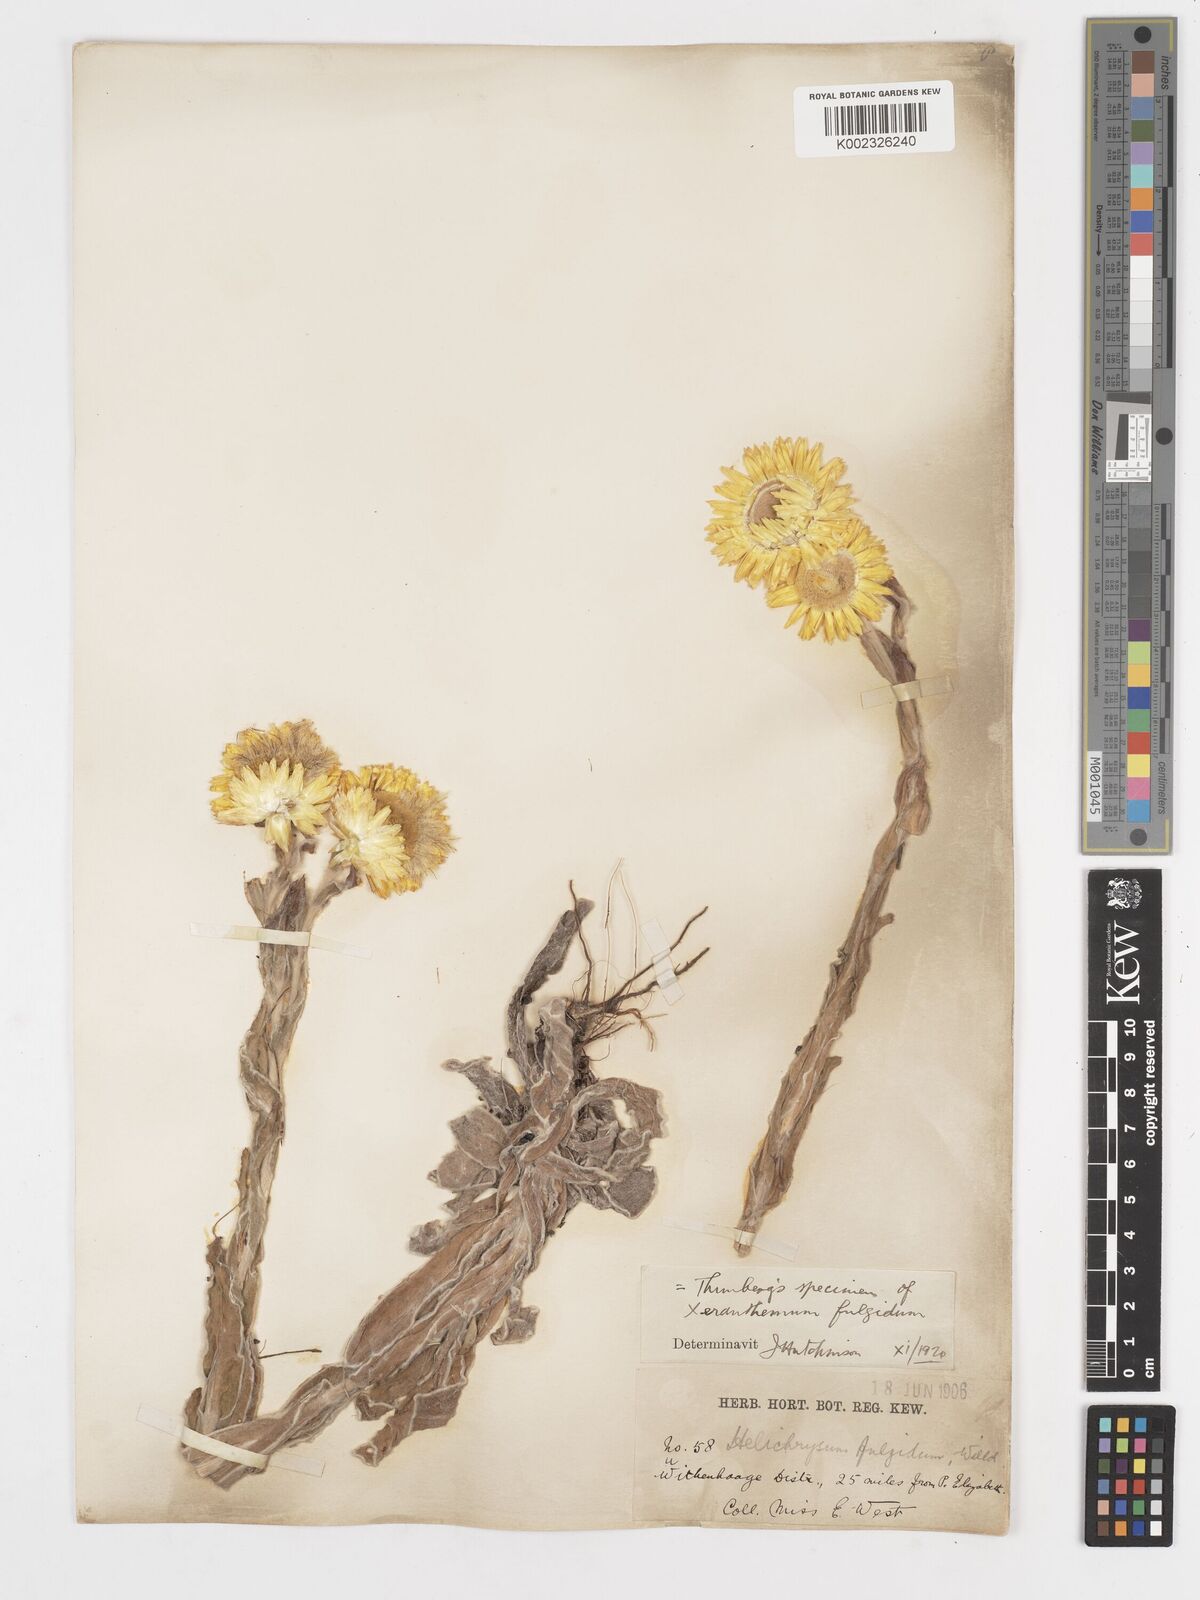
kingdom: Plantae
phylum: Tracheophyta
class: Magnoliopsida
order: Asterales
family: Asteraceae
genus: Helichrysum
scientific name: Helichrysum aureum
